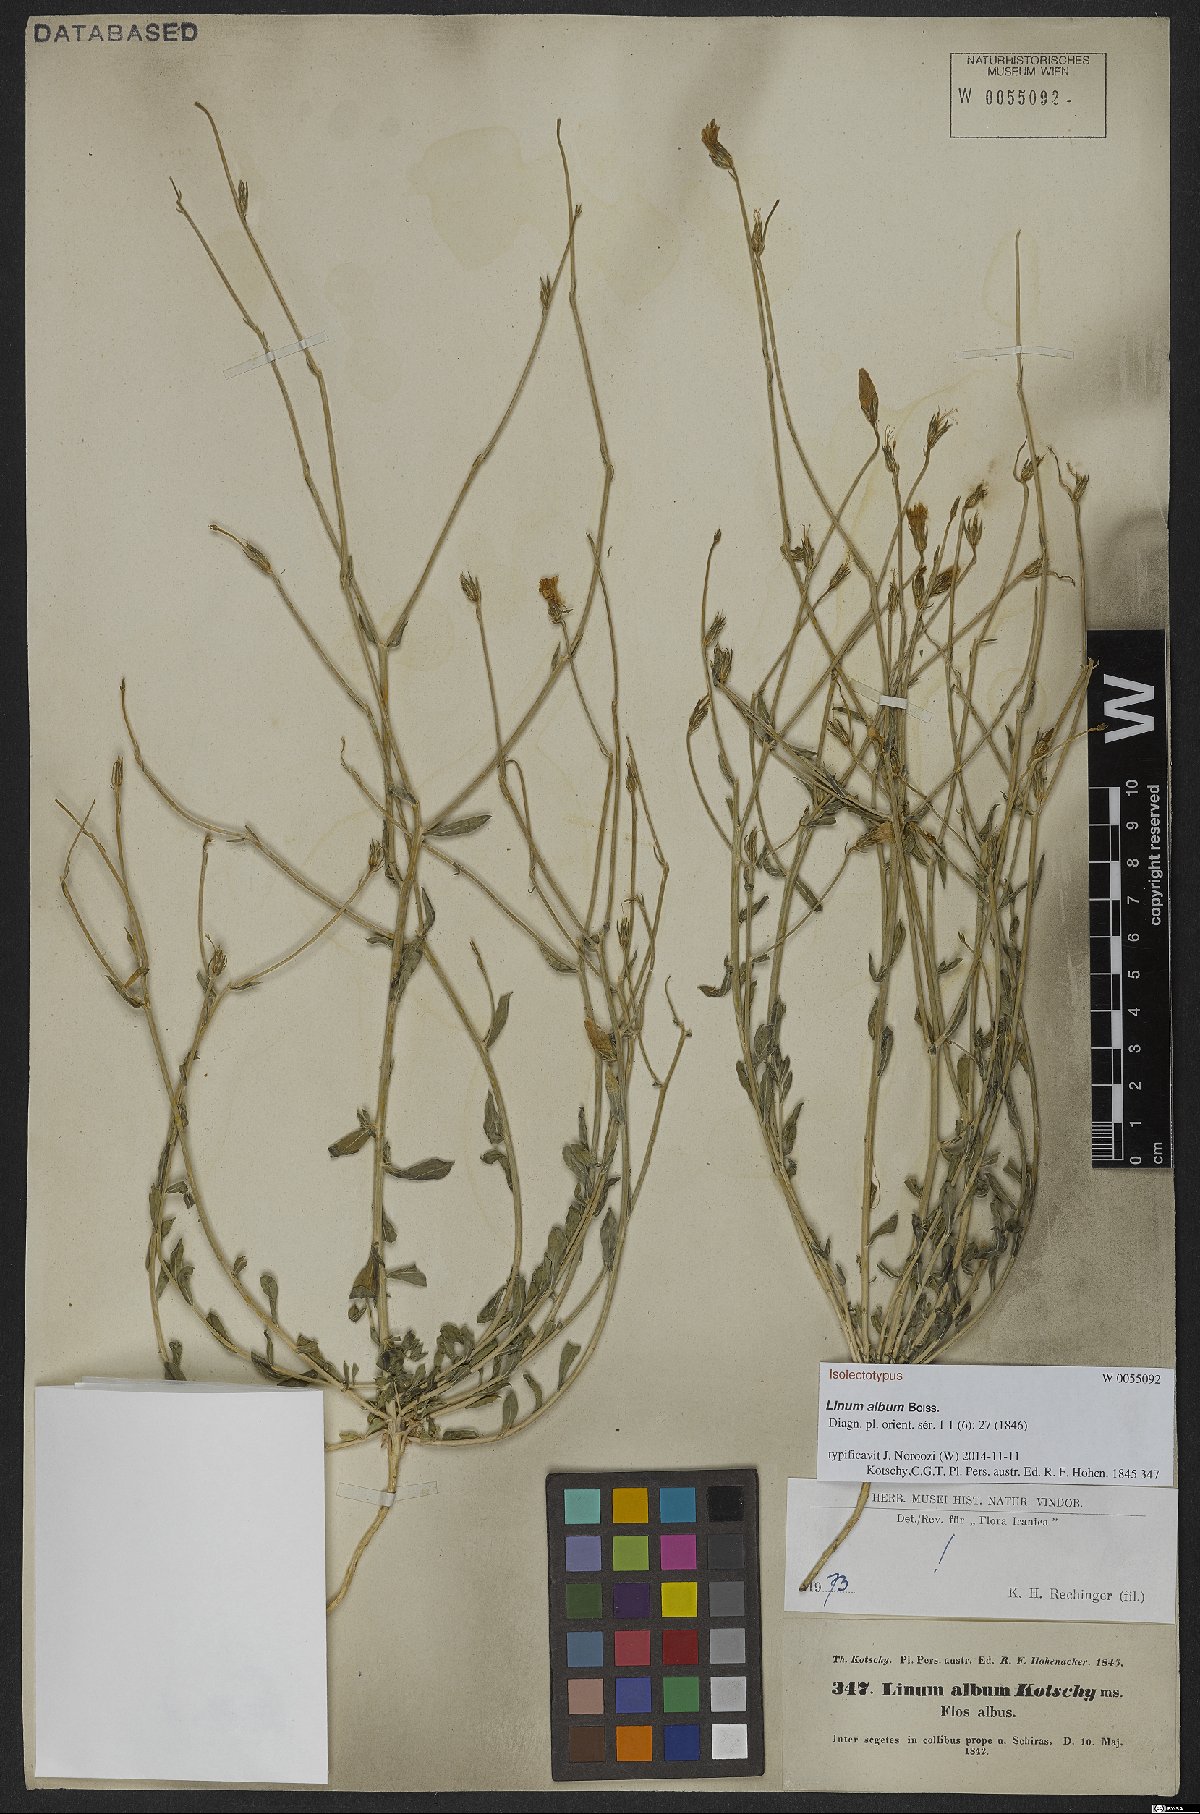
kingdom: Plantae
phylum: Tracheophyta
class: Magnoliopsida
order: Malpighiales
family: Linaceae
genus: Linum
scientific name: Linum album
